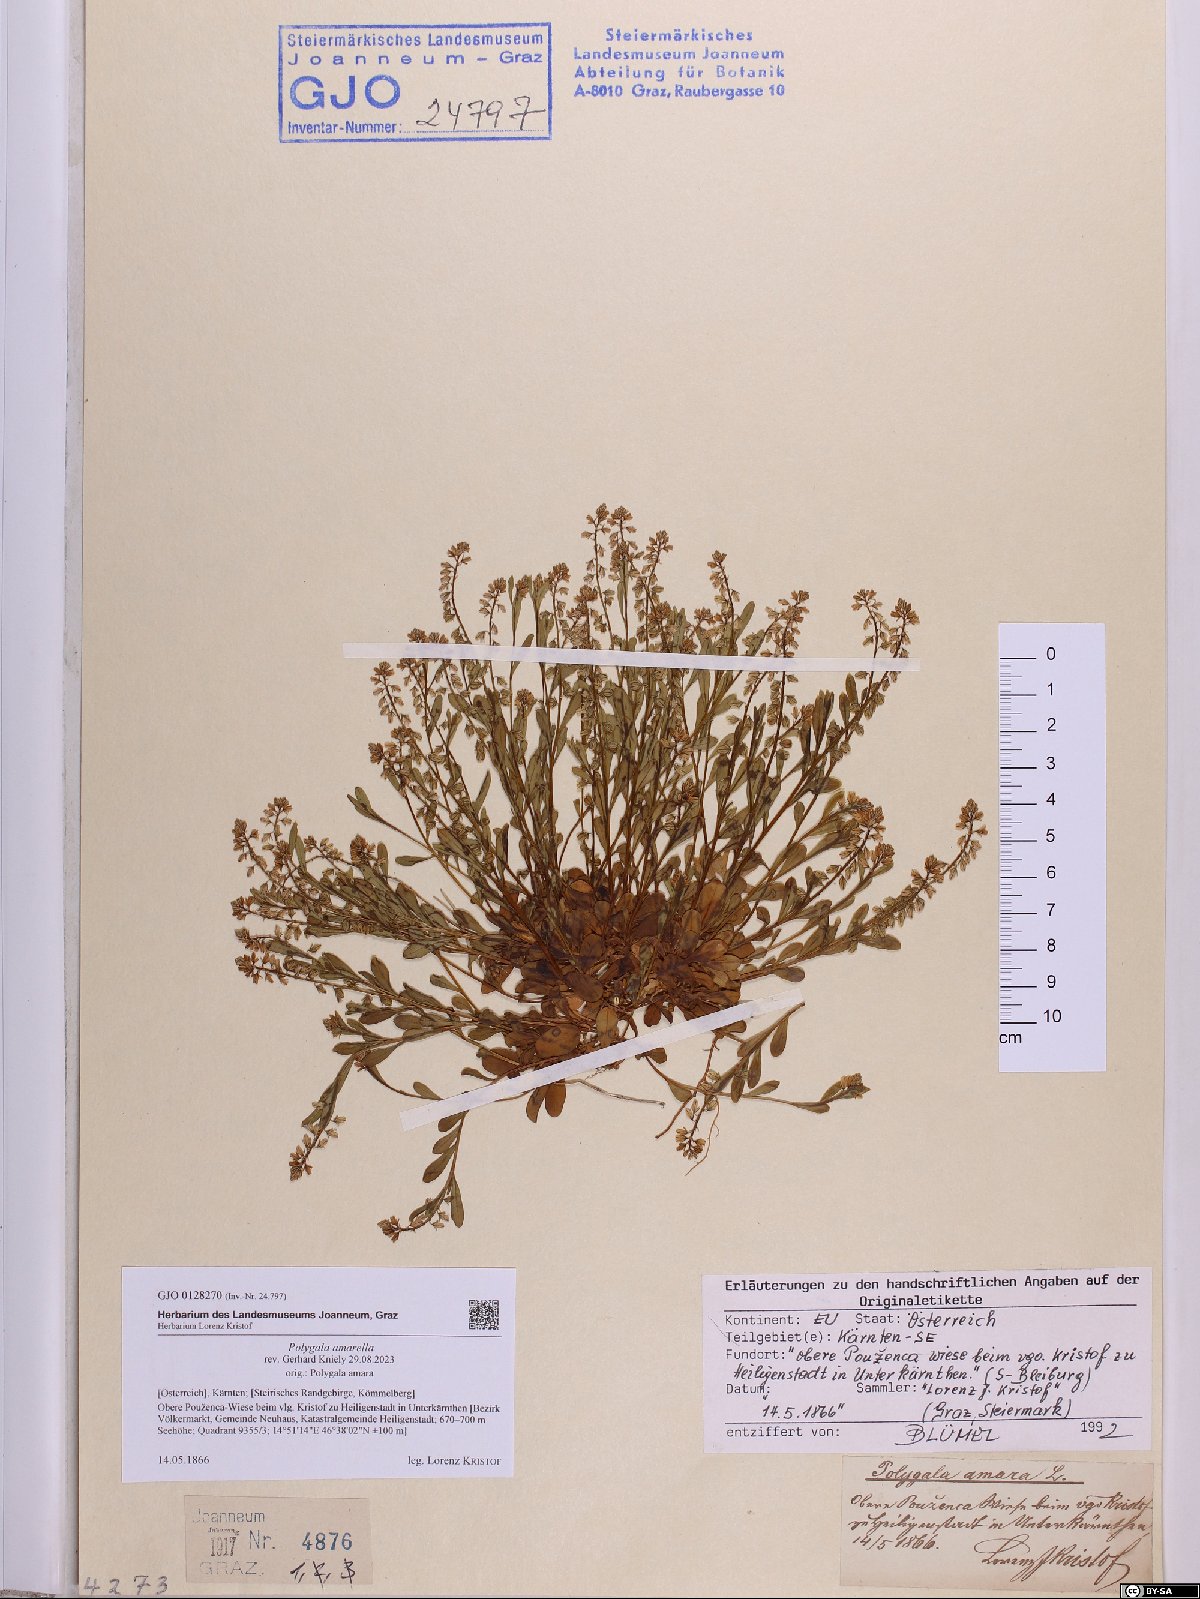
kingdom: Plantae
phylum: Tracheophyta
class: Magnoliopsida
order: Fabales
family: Polygalaceae
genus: Polygala
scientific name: Polygala amarella
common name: Dwarf milkwort
